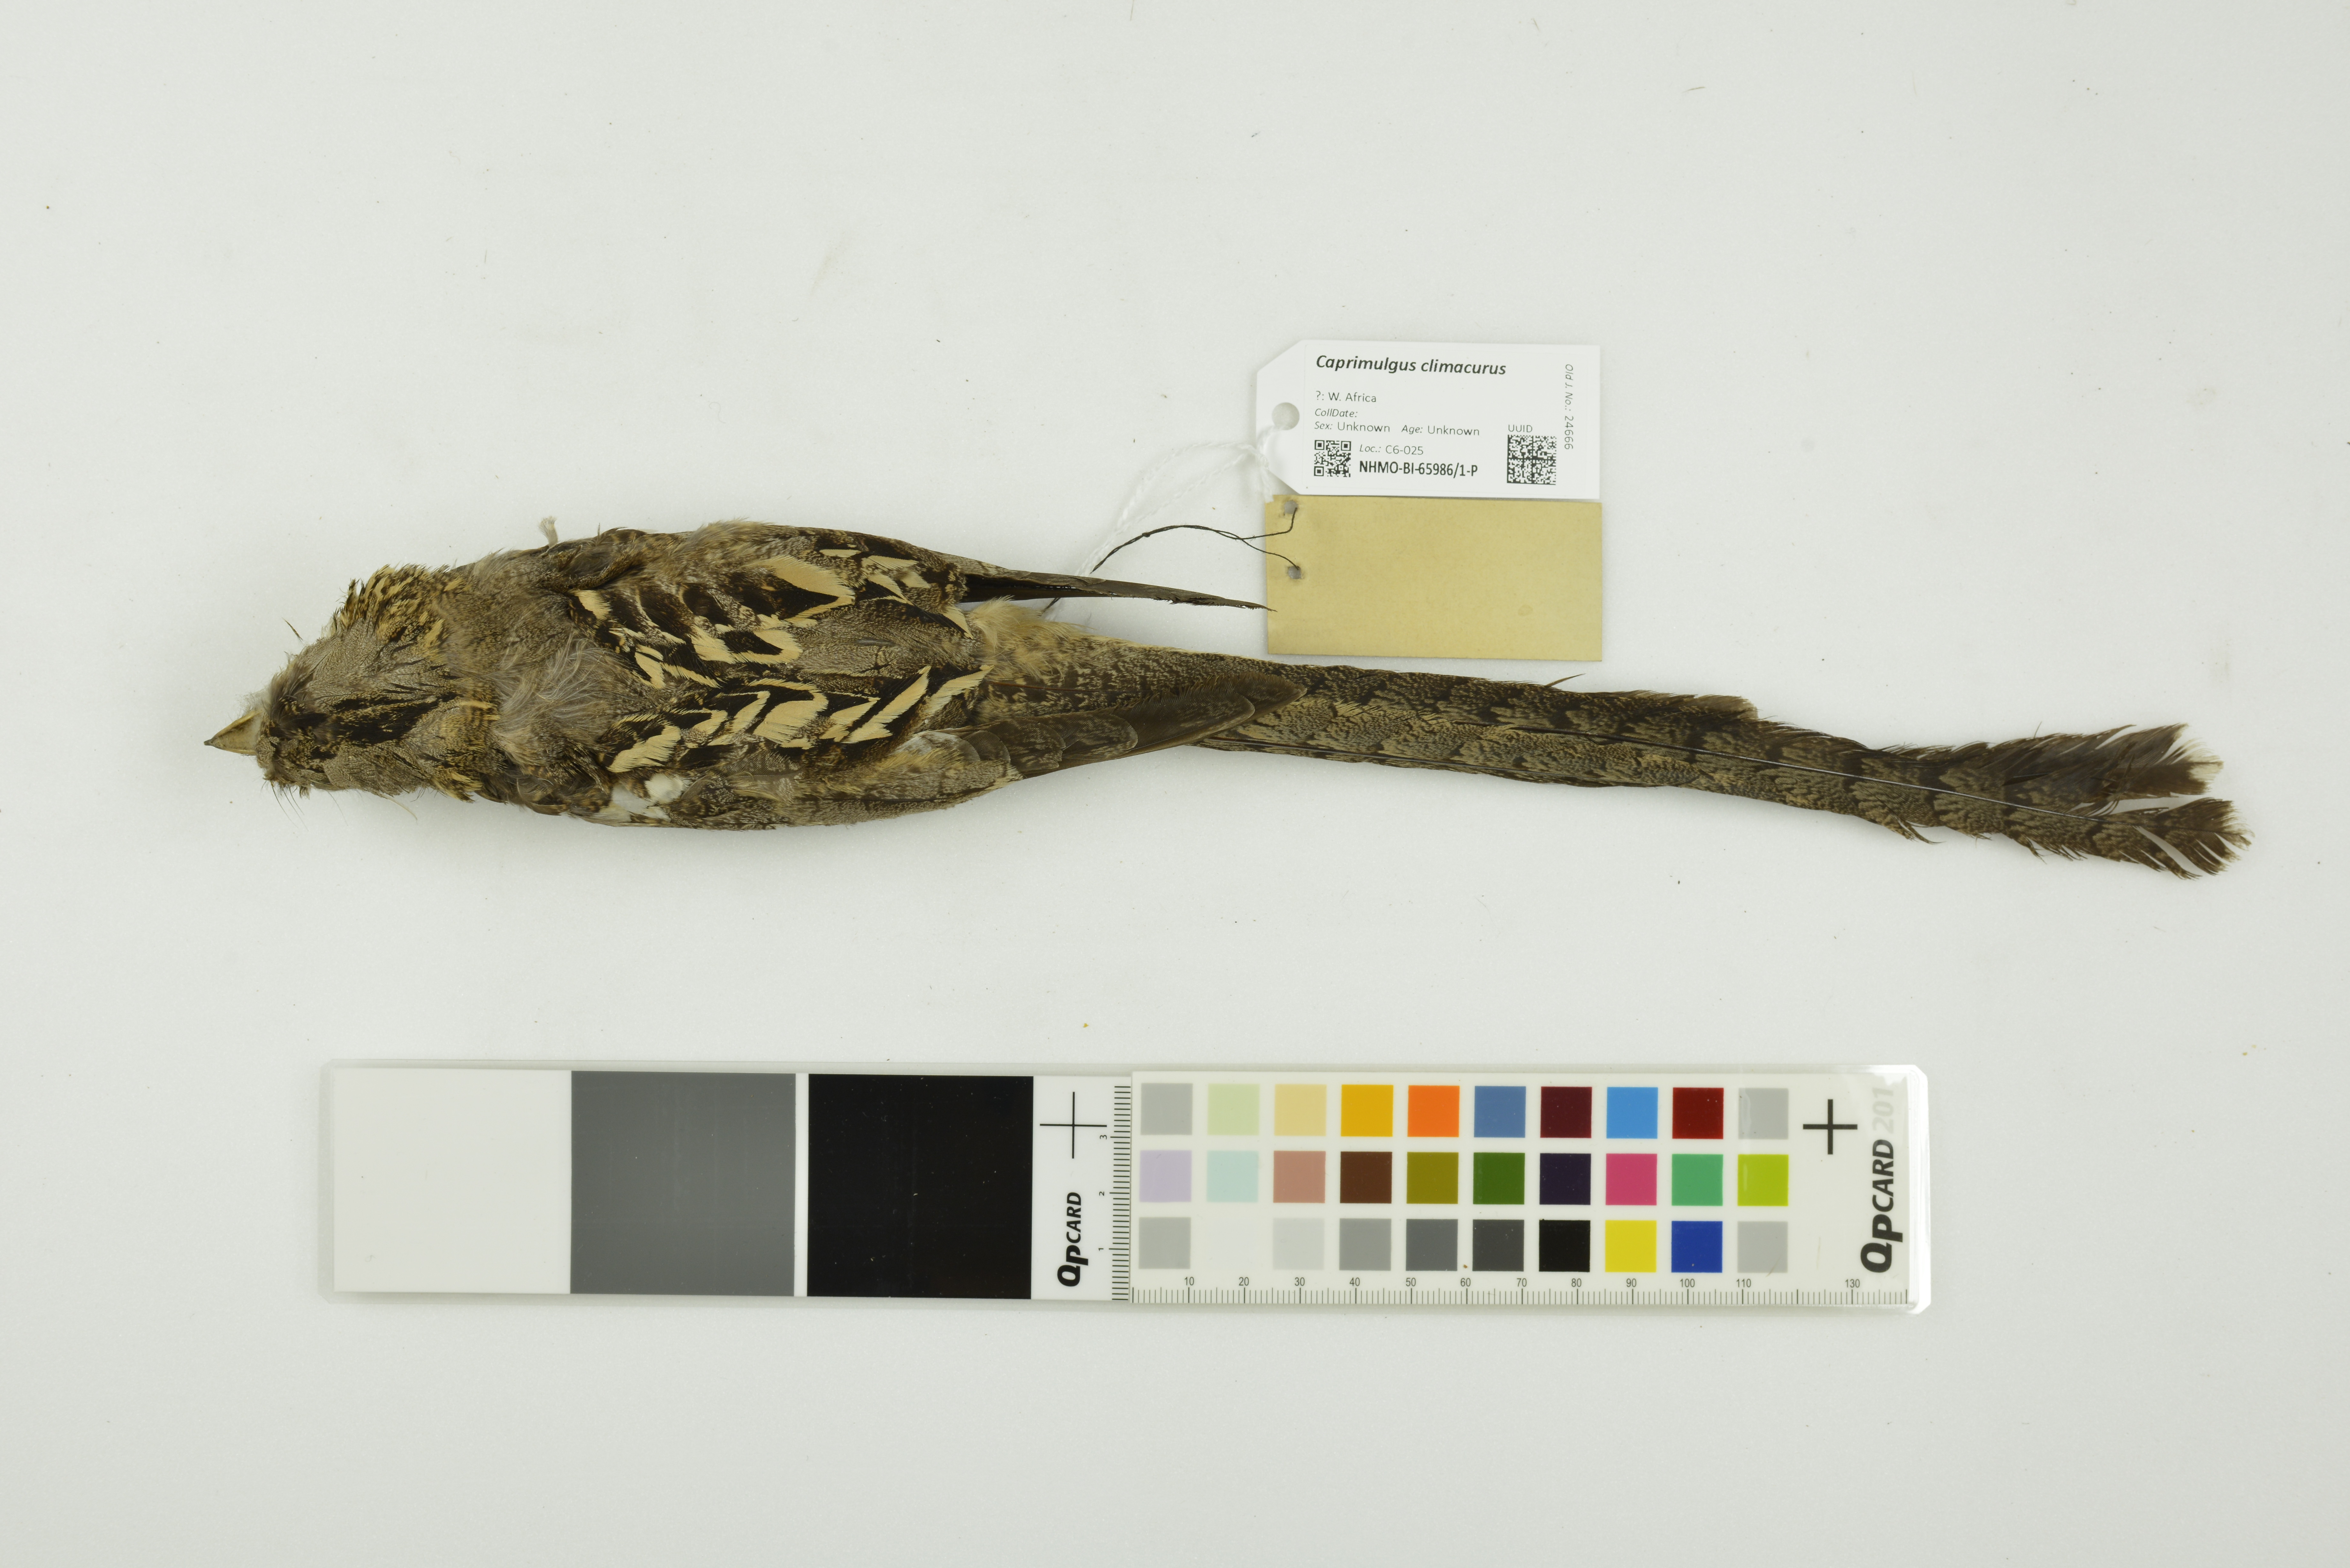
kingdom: Animalia
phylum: Chordata
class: Aves
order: Caprimulgiformes
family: Caprimulgidae
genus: Caprimulgus
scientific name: Caprimulgus climacurus
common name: Long-tailed nightjar
